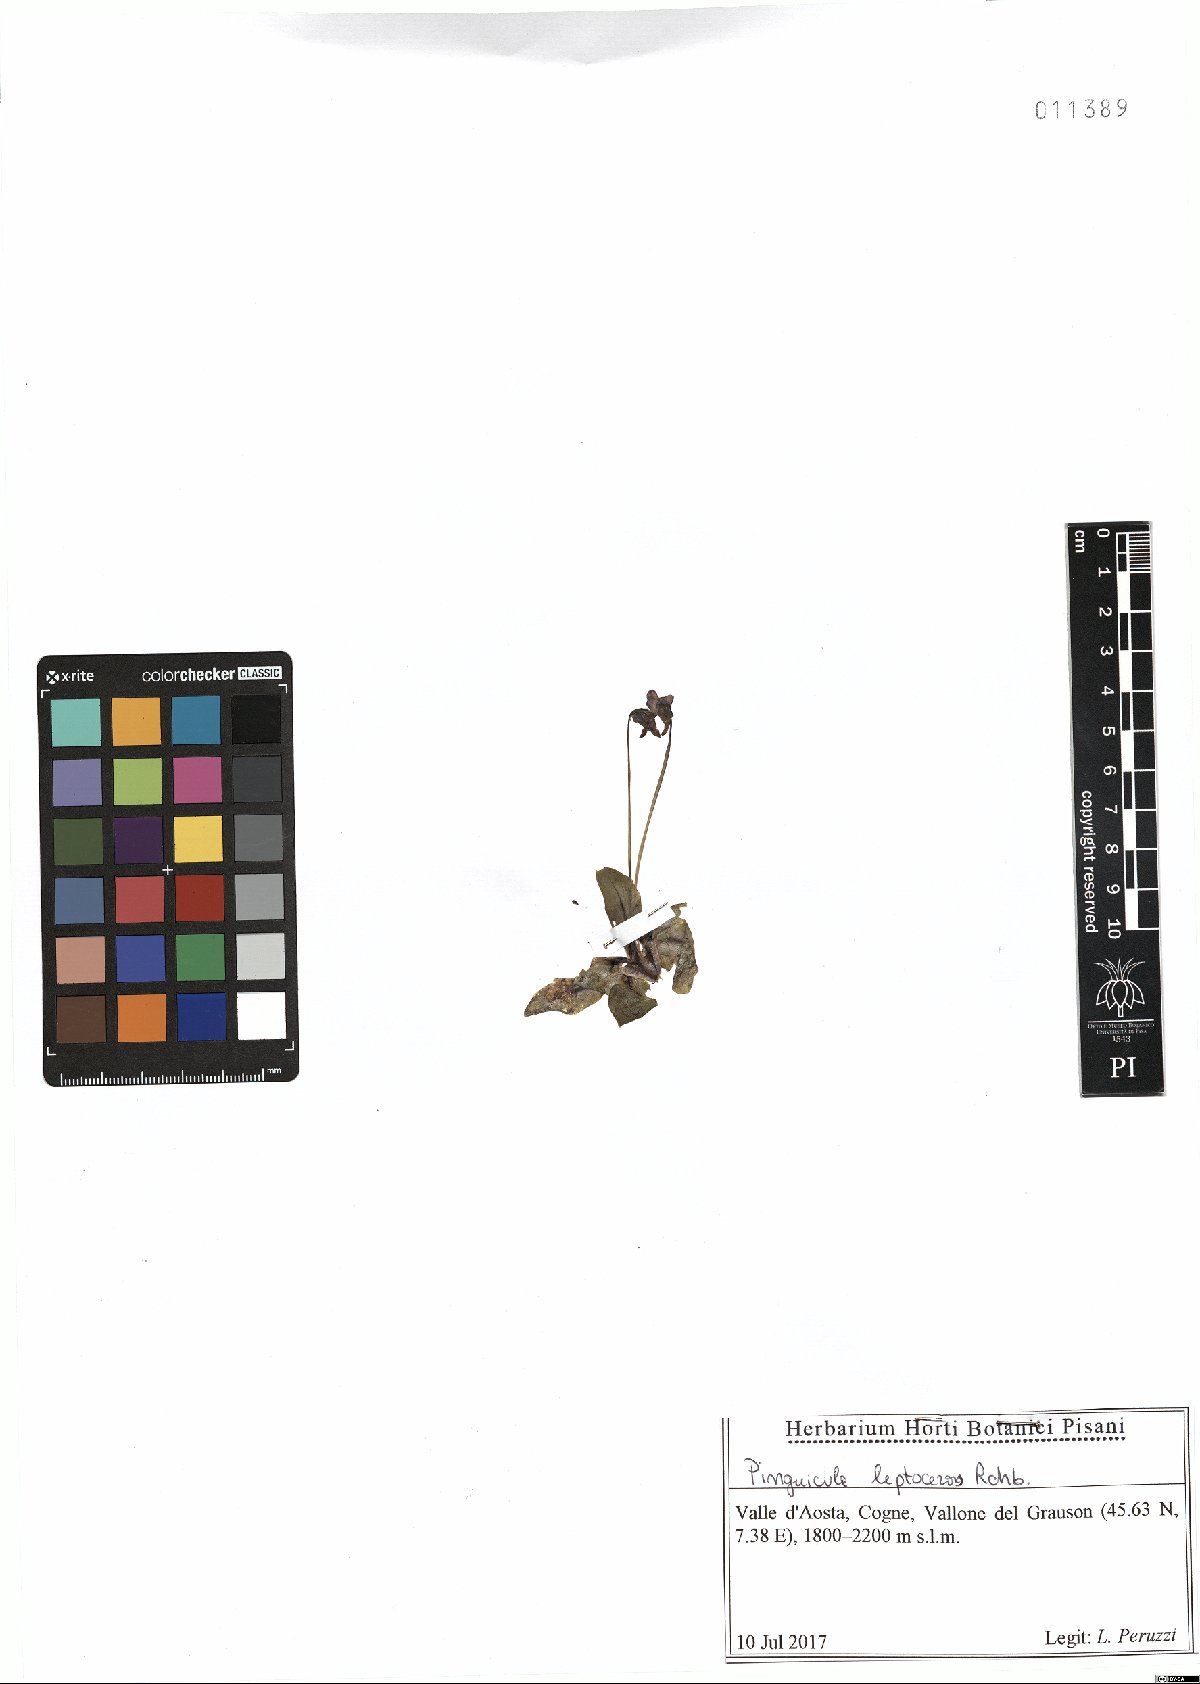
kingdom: Plantae
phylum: Tracheophyta
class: Magnoliopsida
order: Lamiales
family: Lentibulariaceae
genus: Pinguicula
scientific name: Pinguicula leptoceras
